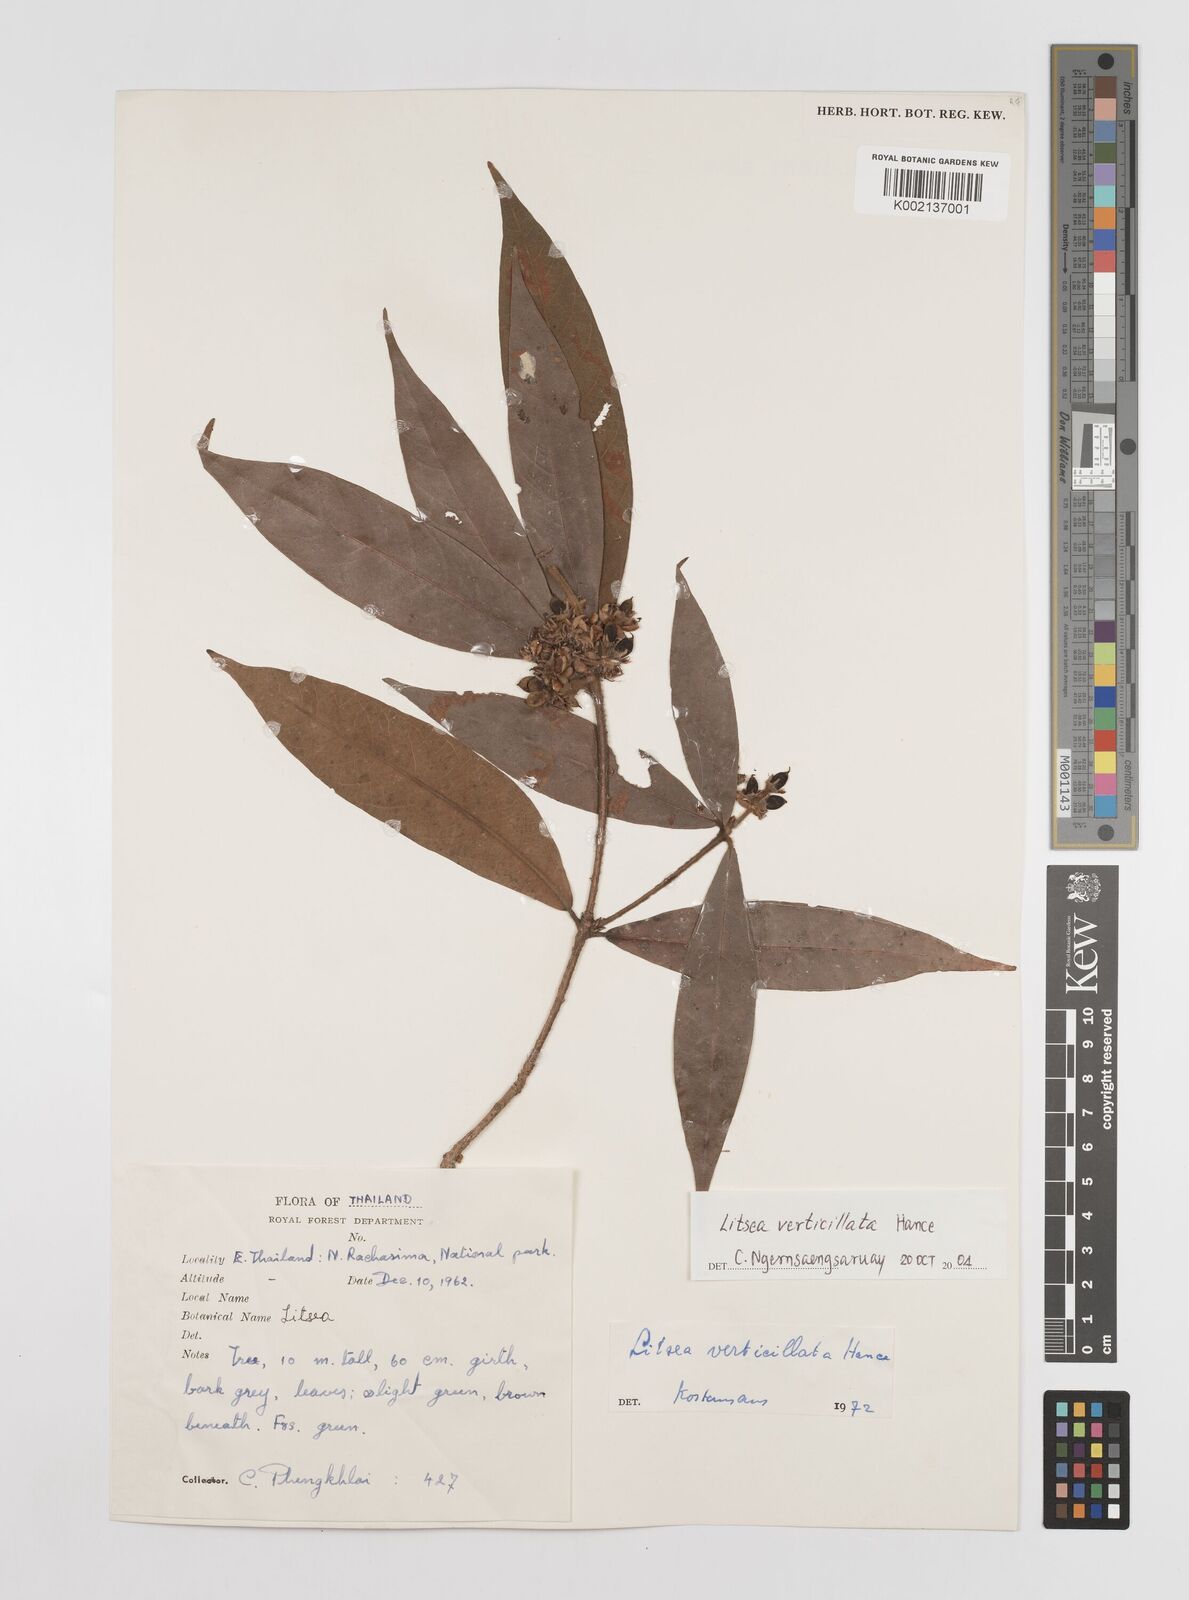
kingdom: Plantae
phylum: Tracheophyta
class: Magnoliopsida
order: Laurales
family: Lauraceae
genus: Litsea
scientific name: Litsea verticillata
